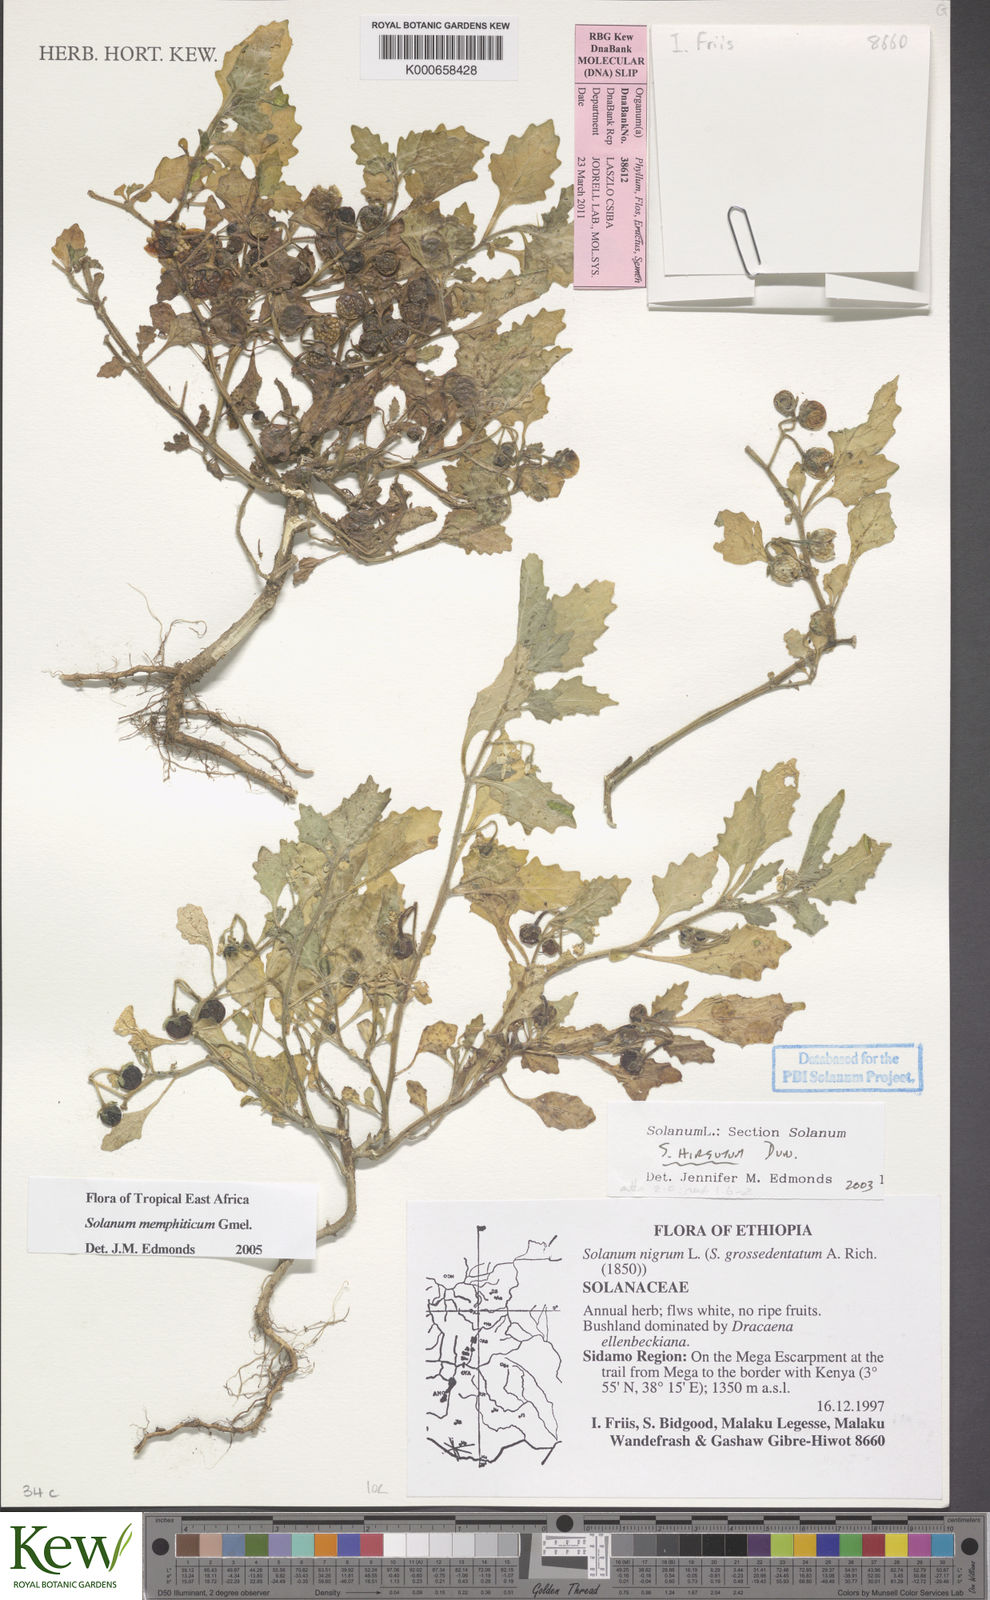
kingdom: Plantae
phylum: Tracheophyta
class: Magnoliopsida
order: Solanales
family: Solanaceae
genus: Solanum
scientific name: Solanum memphiticum
